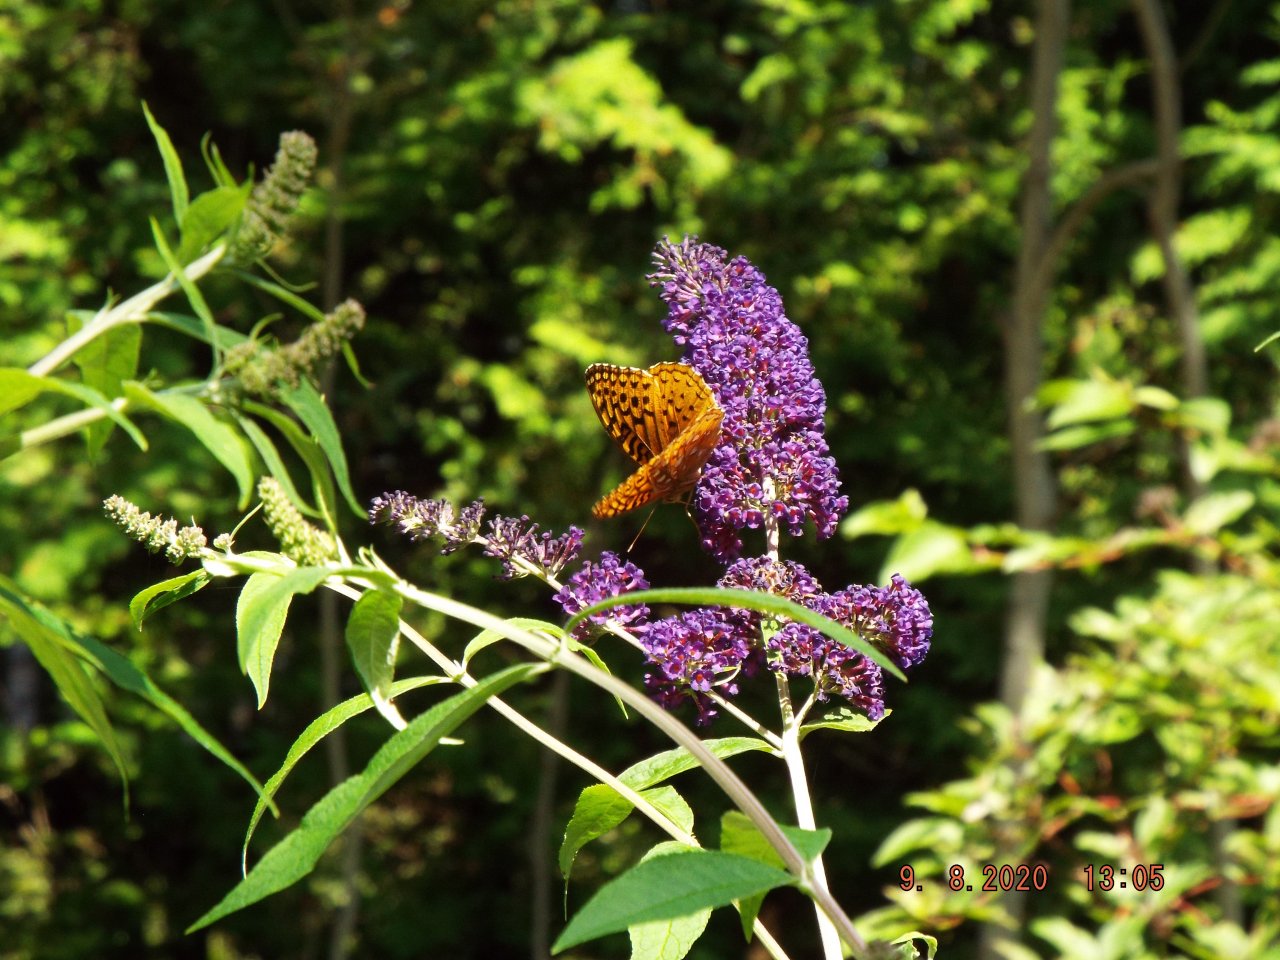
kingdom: Animalia
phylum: Arthropoda
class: Insecta
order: Lepidoptera
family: Nymphalidae
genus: Speyeria
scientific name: Speyeria cybele
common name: Great Spangled Fritillary
